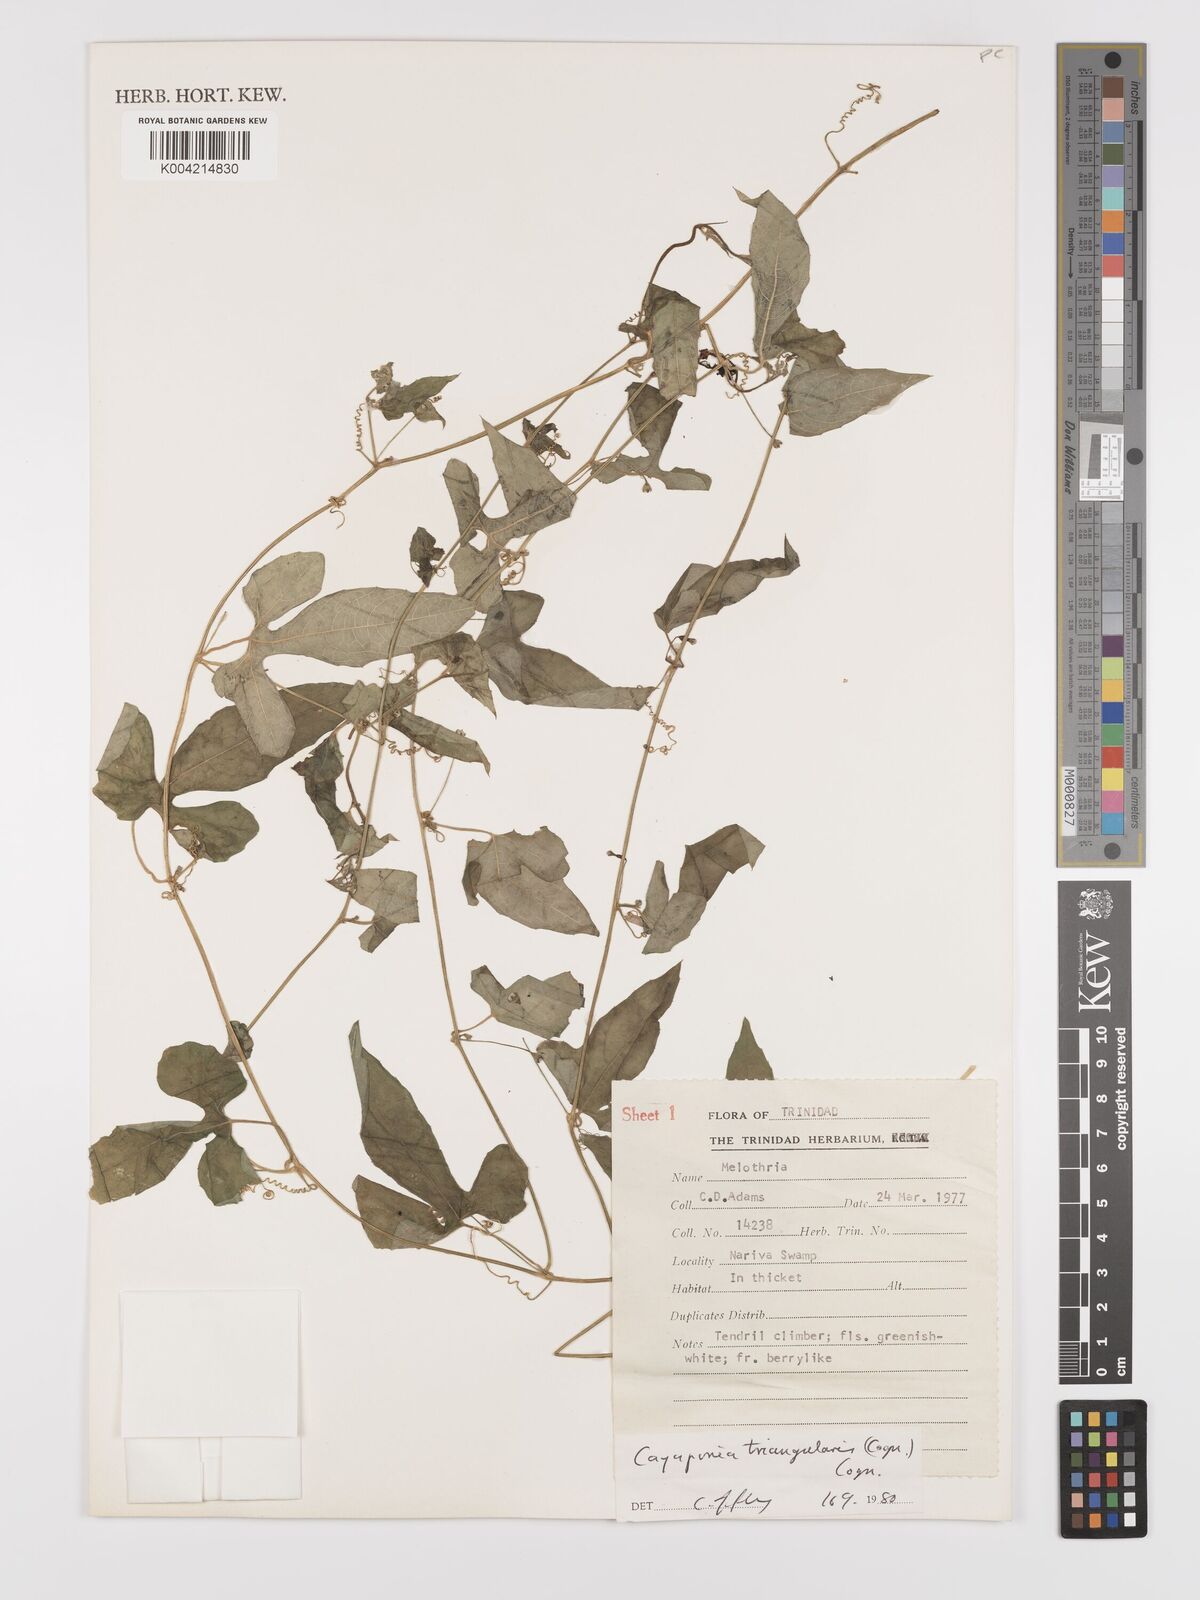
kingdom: Plantae
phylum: Tracheophyta
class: Magnoliopsida
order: Cucurbitales
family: Cucurbitaceae
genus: Cayaponia
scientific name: Cayaponia triangularis
